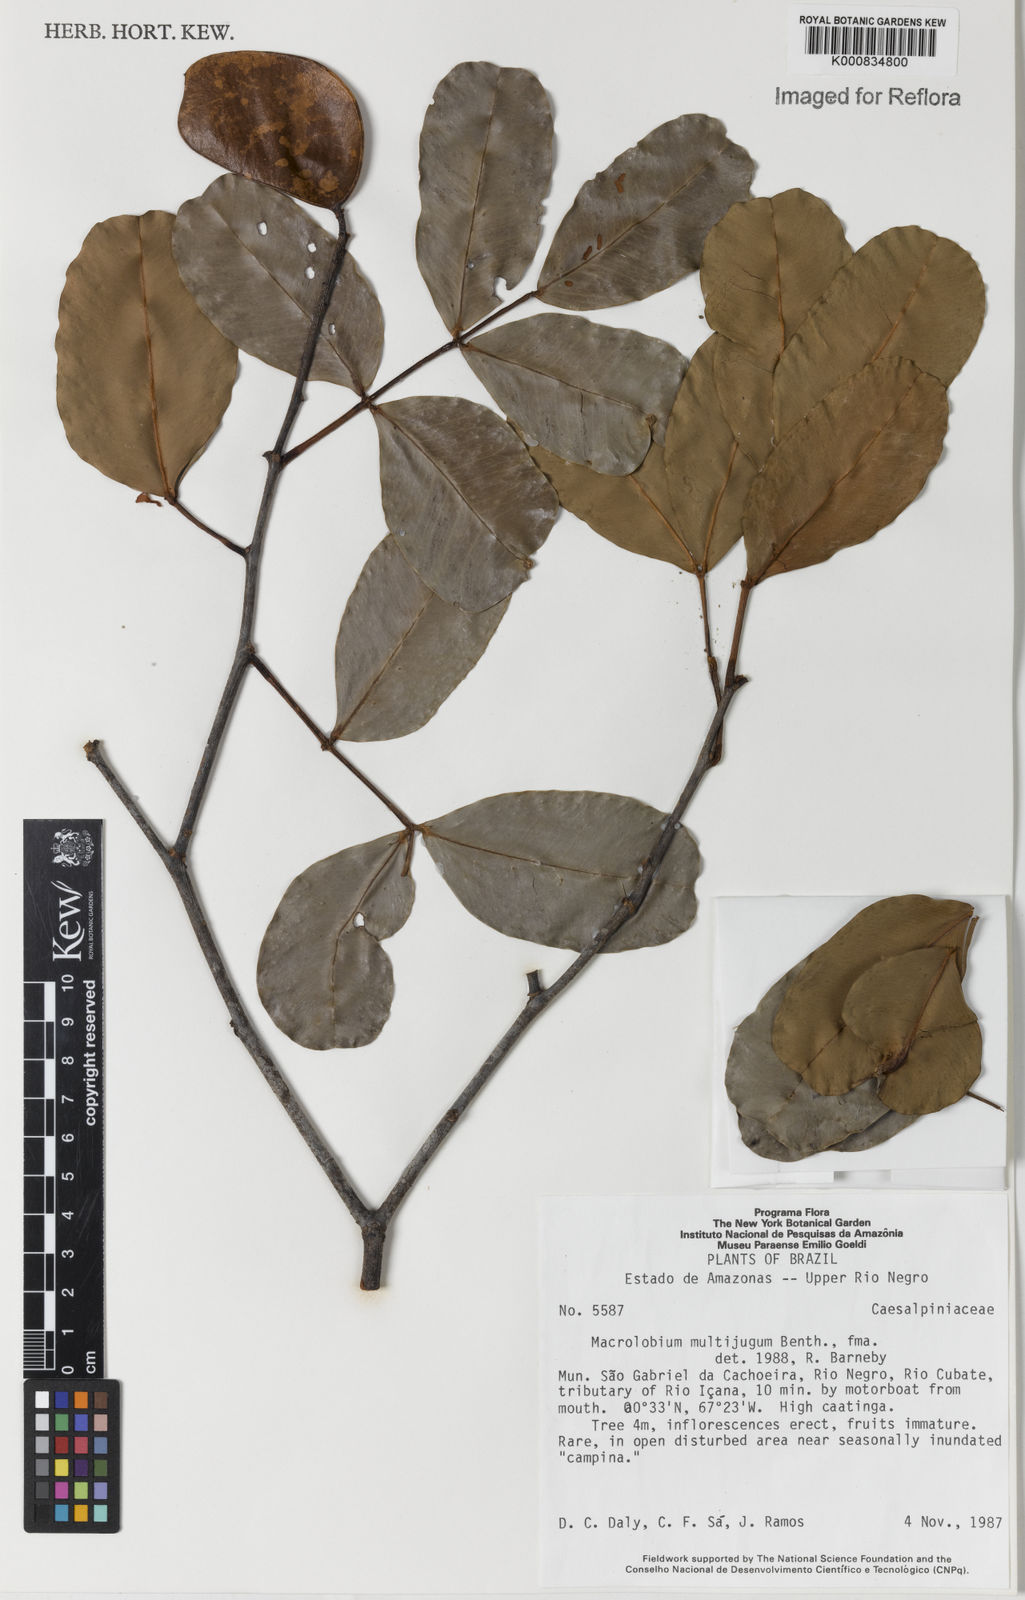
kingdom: Plantae
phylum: Tracheophyta
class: Magnoliopsida
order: Fabales
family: Fabaceae
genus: Macrolobium
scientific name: Macrolobium multijugum
